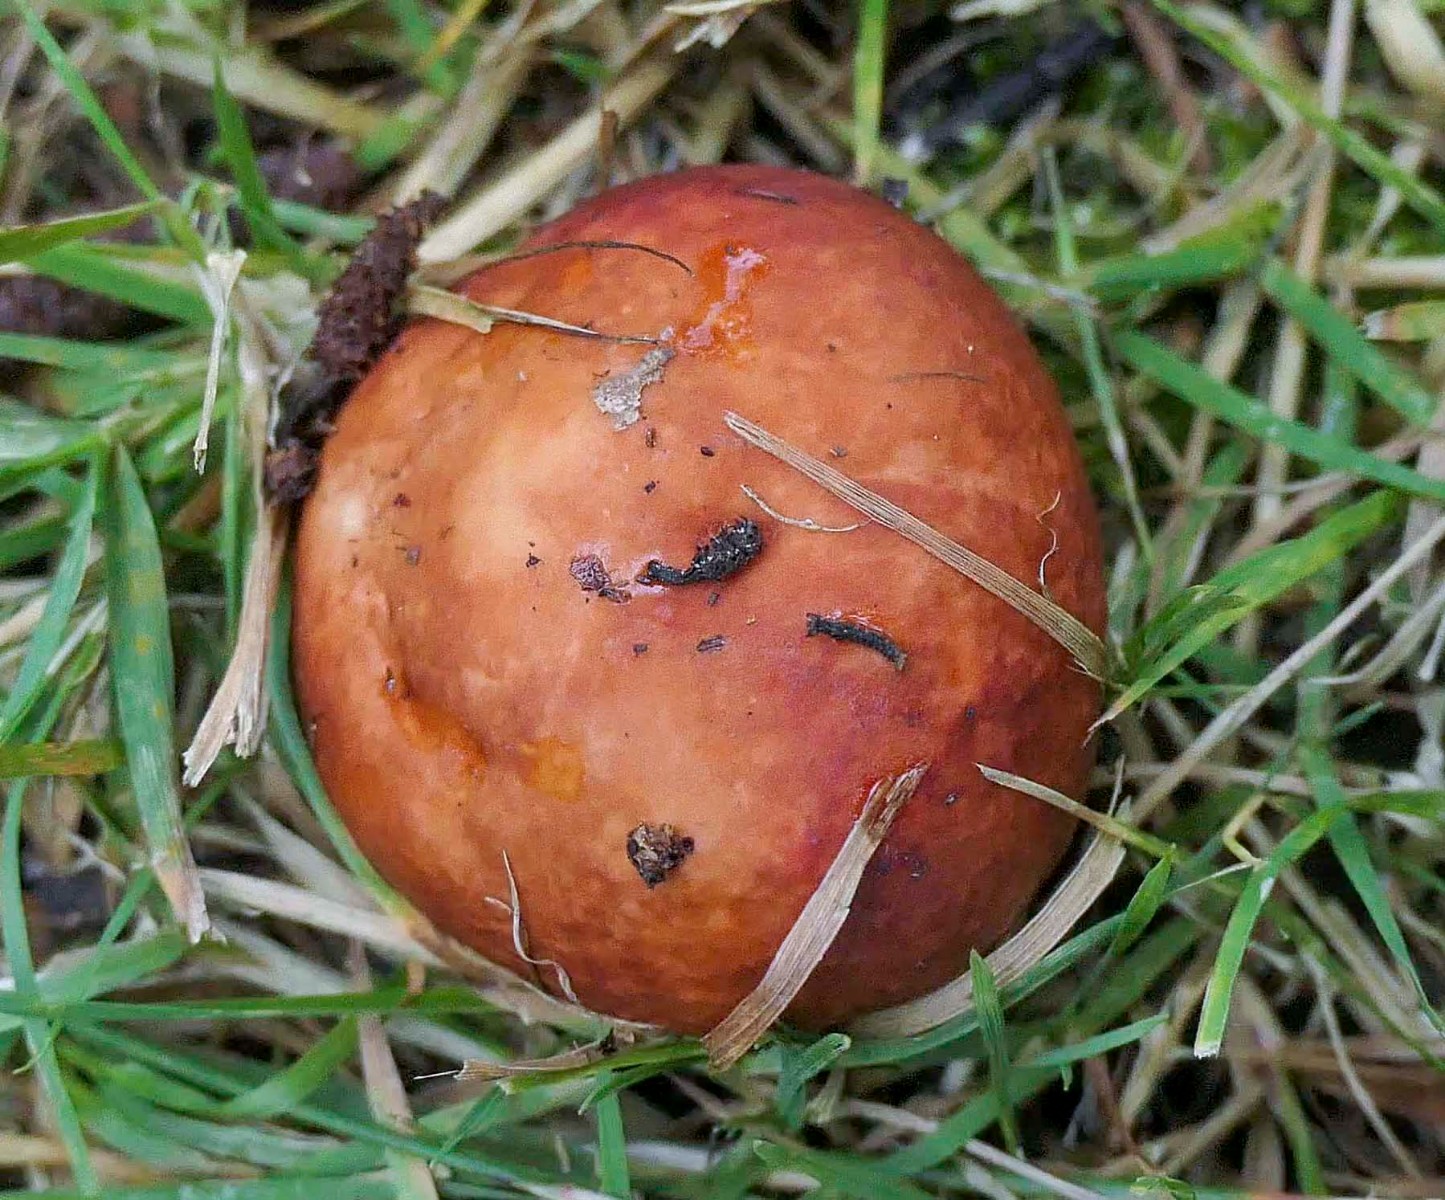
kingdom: Fungi
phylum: Basidiomycota
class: Agaricomycetes
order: Russulales
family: Russulaceae
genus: Russula
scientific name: Russula velenovskyi
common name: orangerød skørhat
